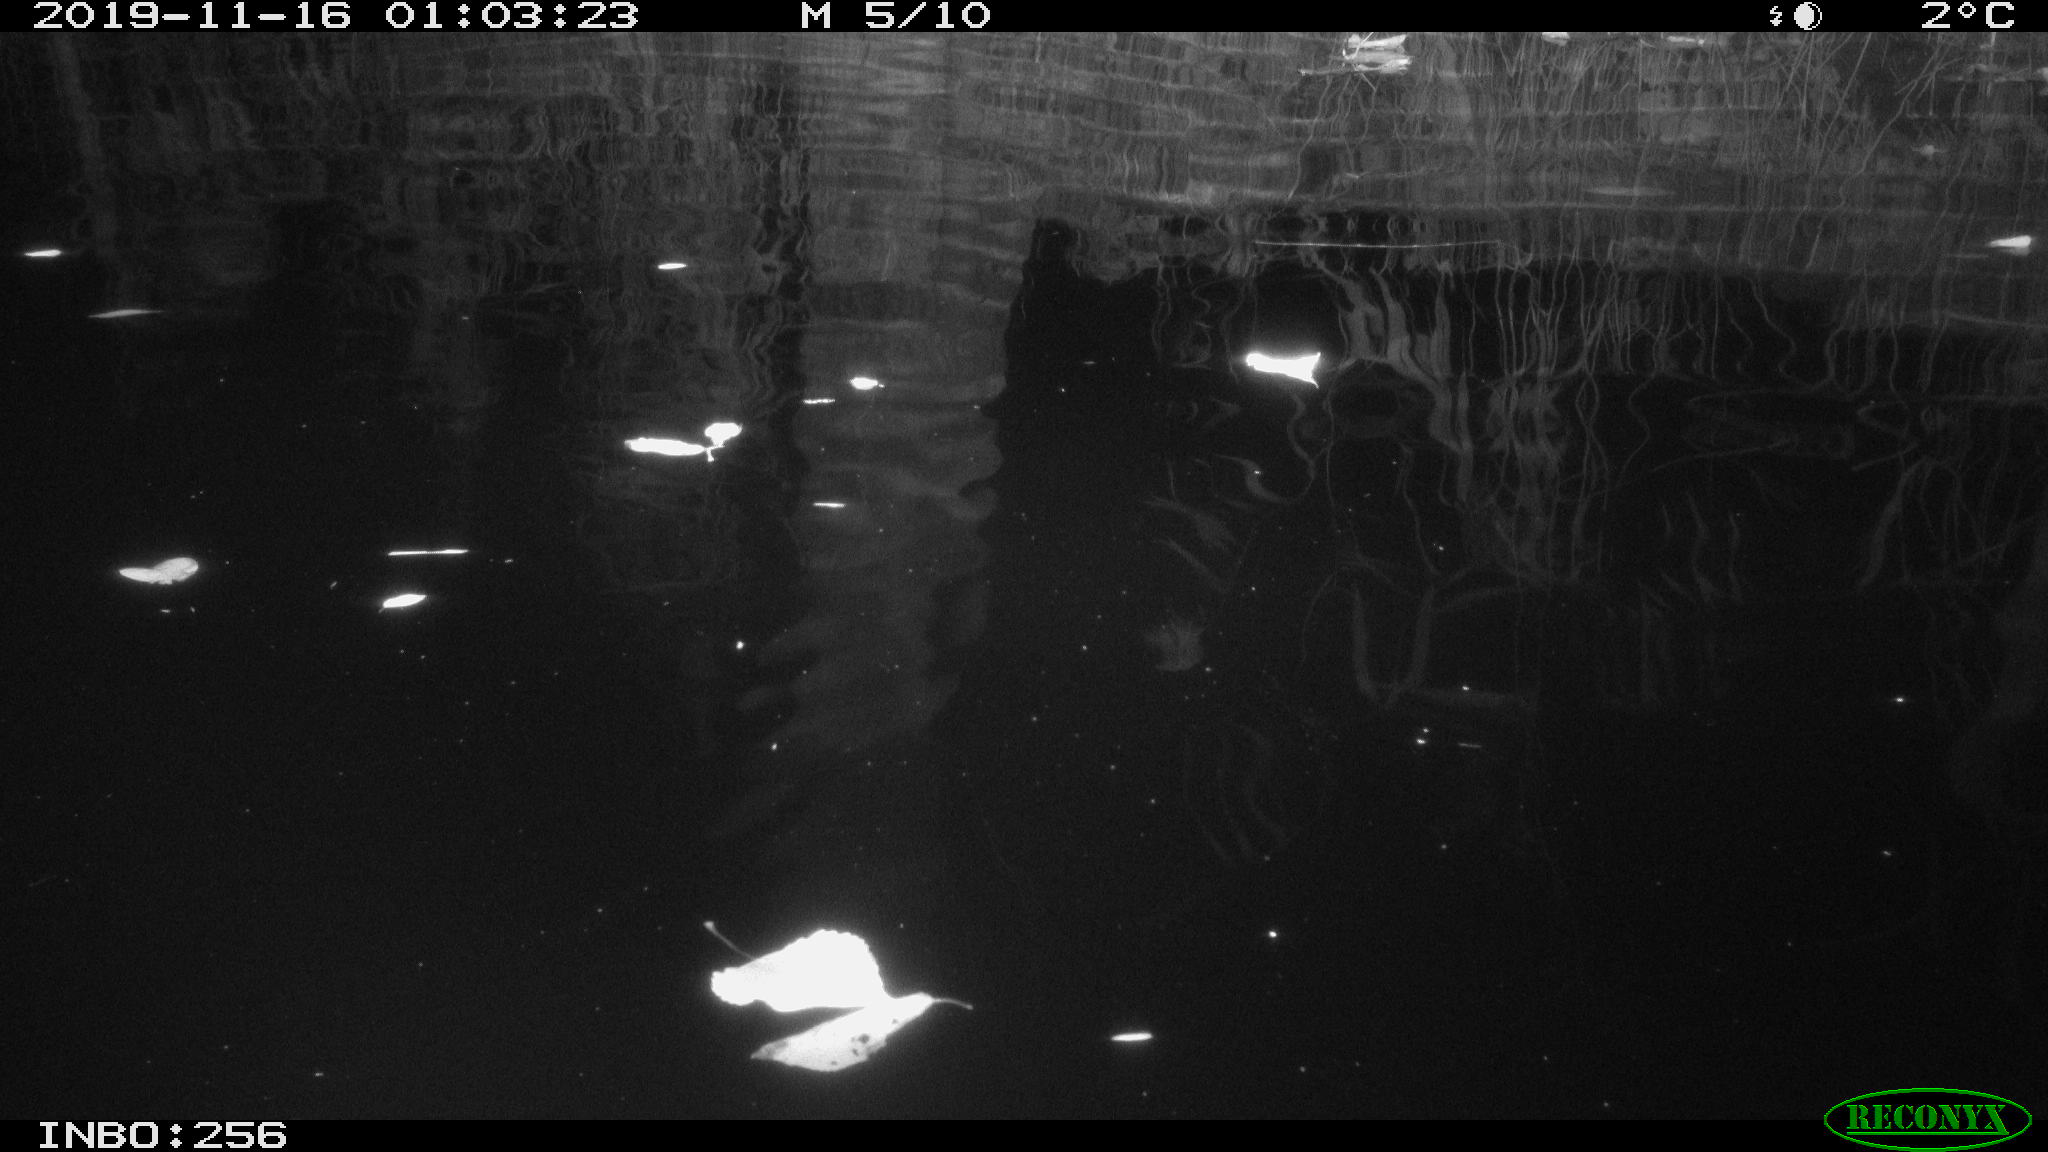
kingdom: Animalia
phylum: Chordata
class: Mammalia
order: Rodentia
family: Muridae
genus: Rattus
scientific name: Rattus norvegicus
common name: Brown rat
